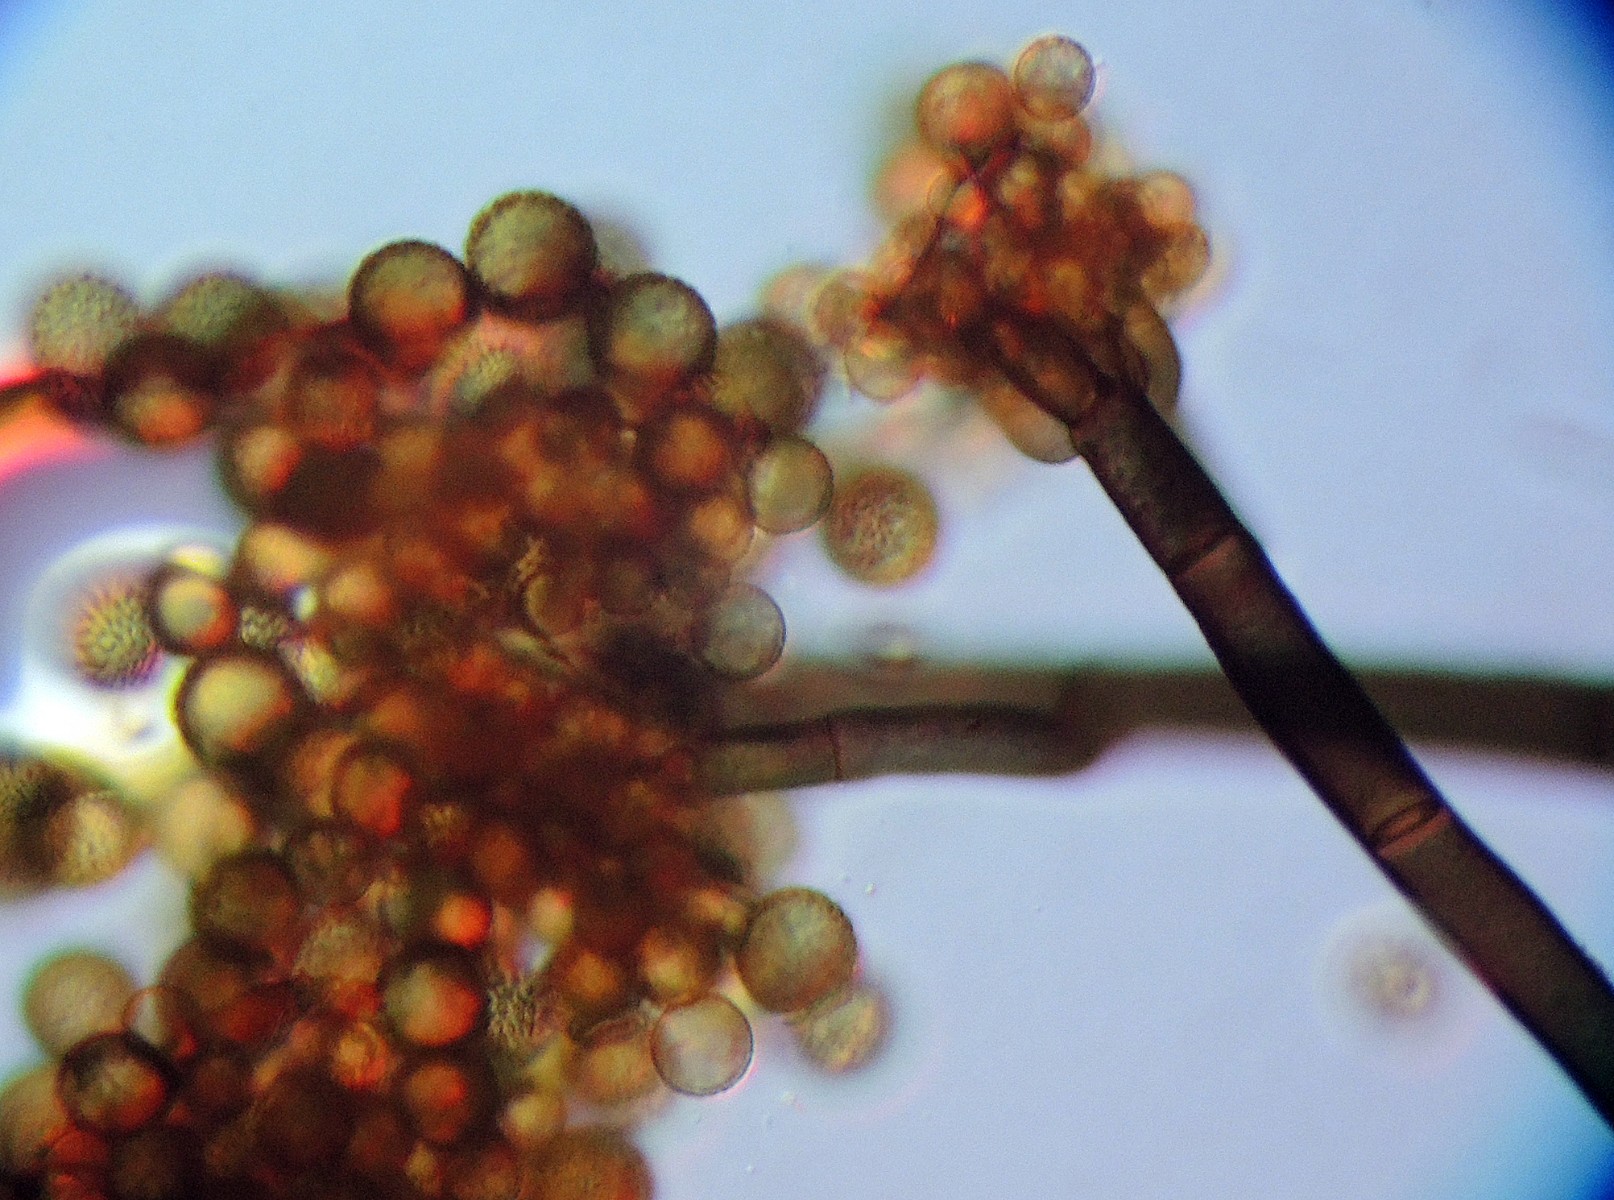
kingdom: Fungi
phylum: Ascomycota
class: Dothideomycetes
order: Pleosporales
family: Periconiaceae
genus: Periconia
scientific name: Periconia typhicola
